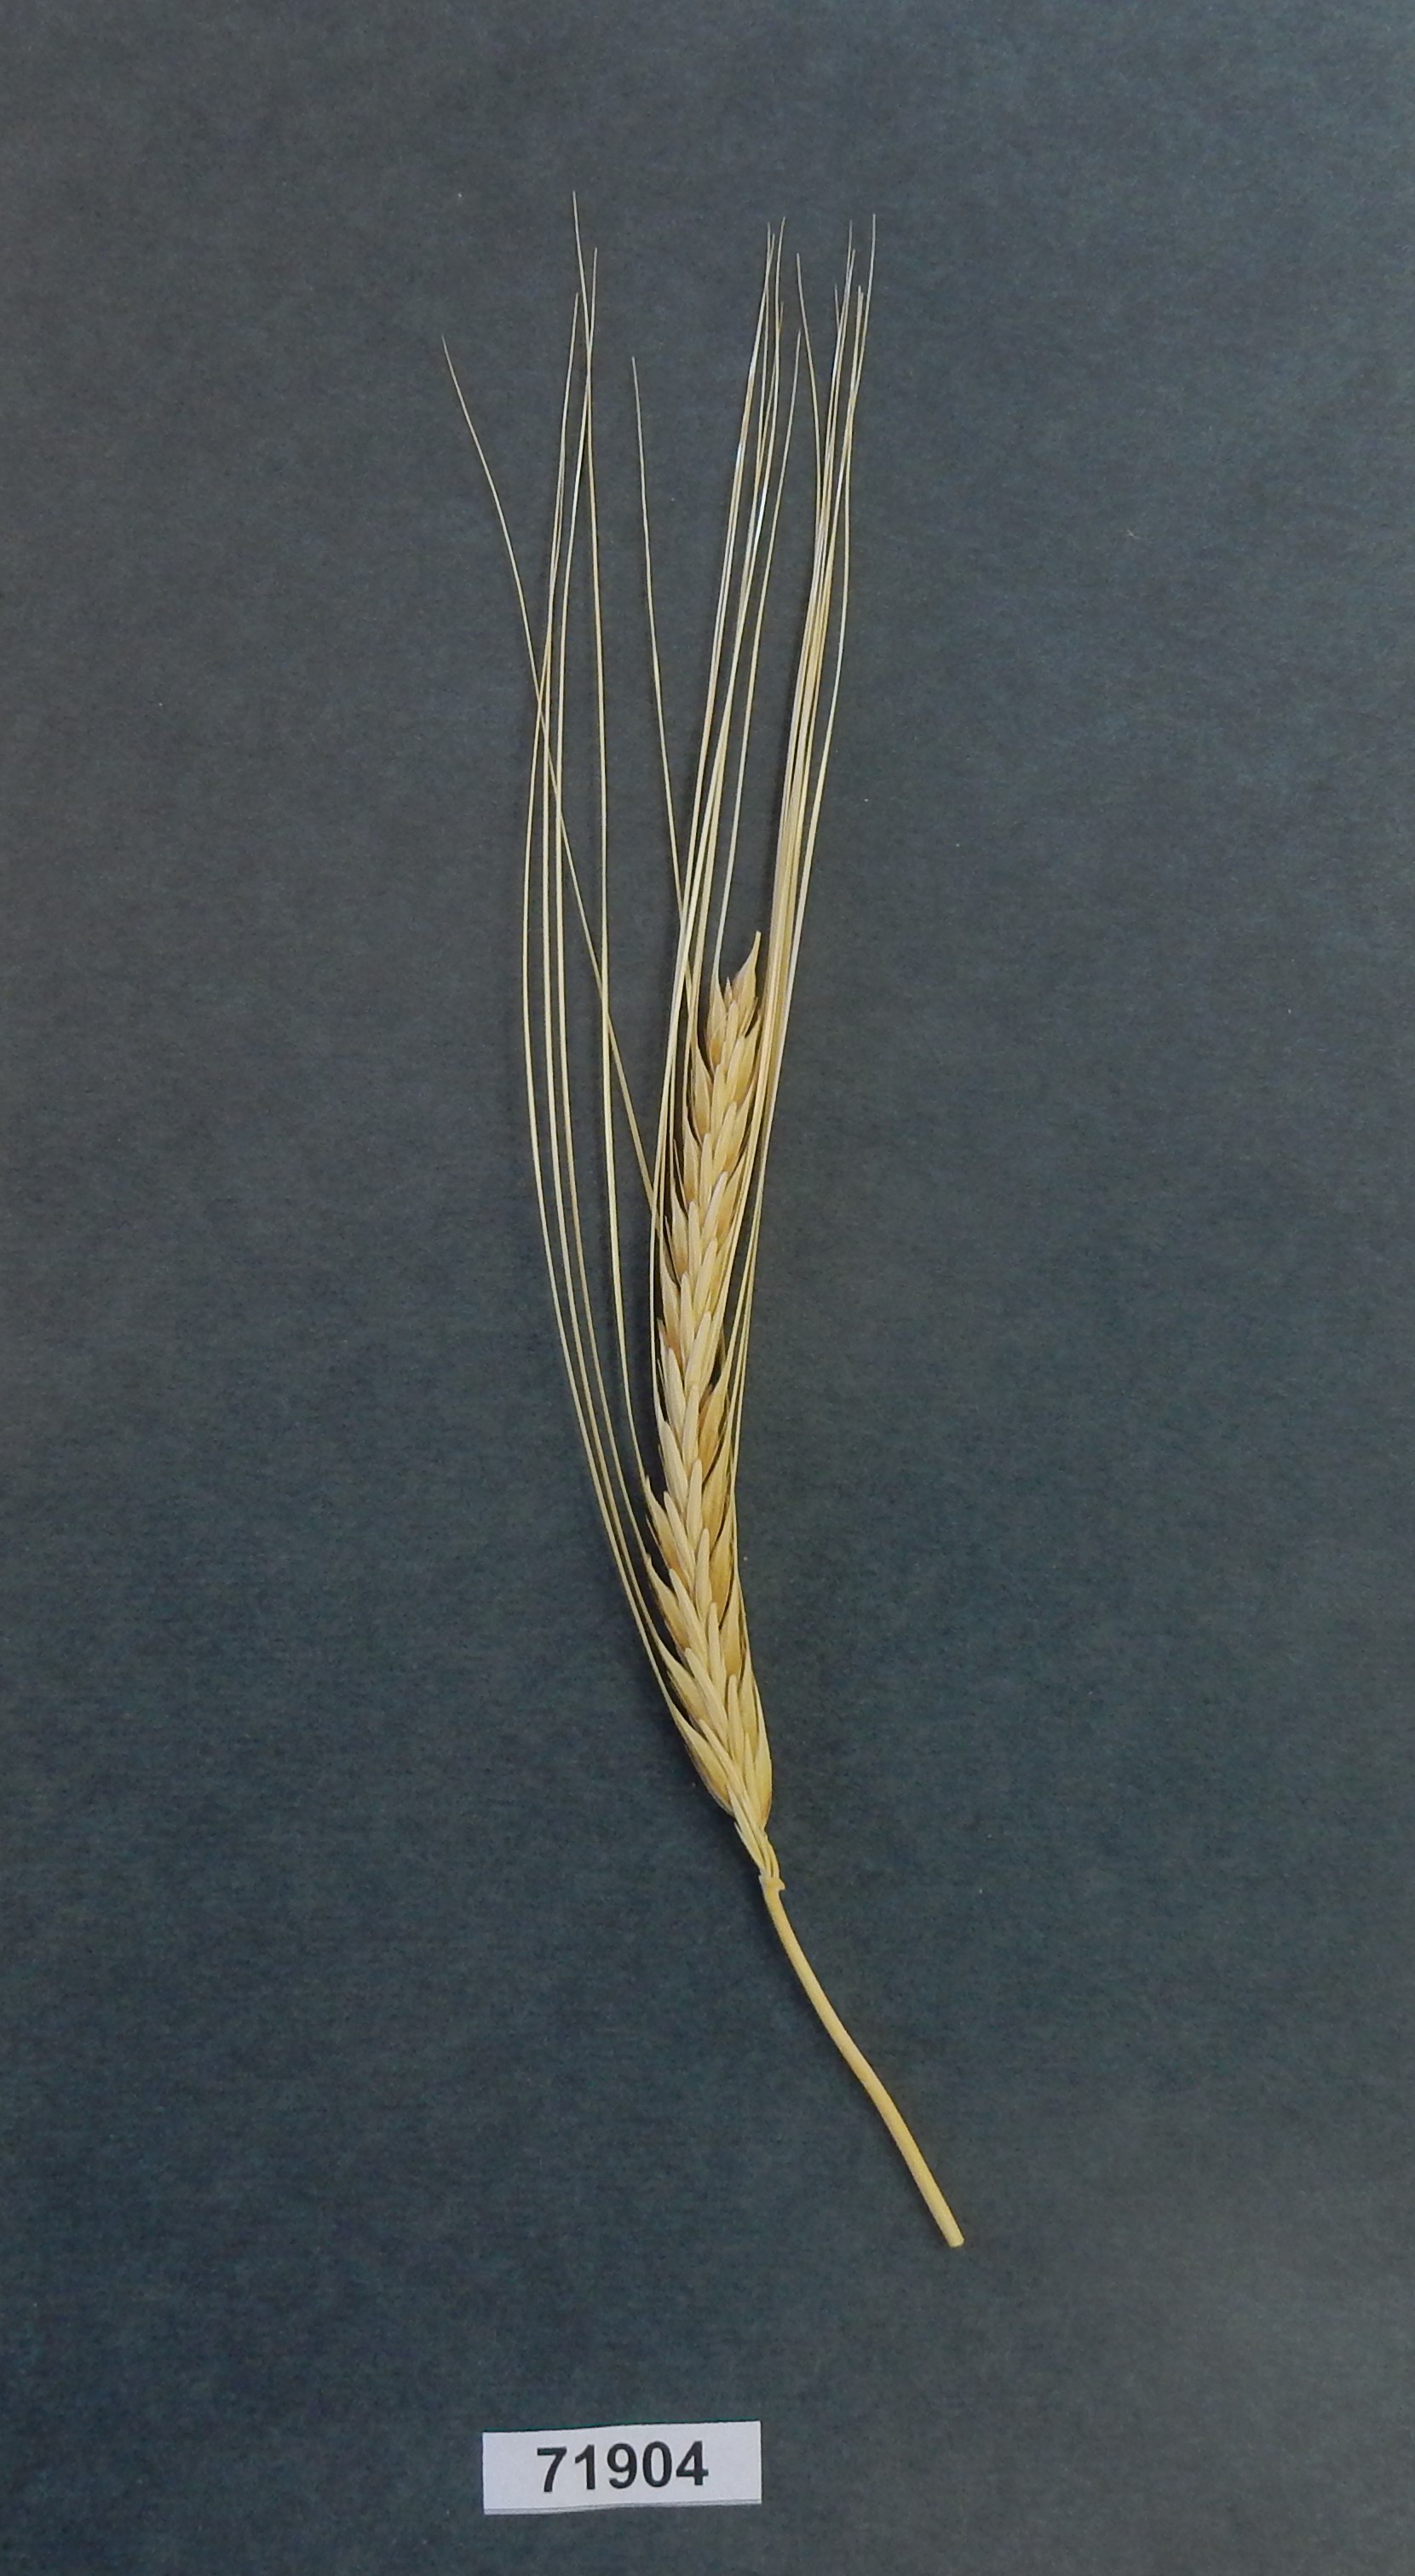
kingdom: Plantae
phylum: Tracheophyta
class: Liliopsida
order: Poales
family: Poaceae
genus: Hordeum
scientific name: Hordeum
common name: Barley
